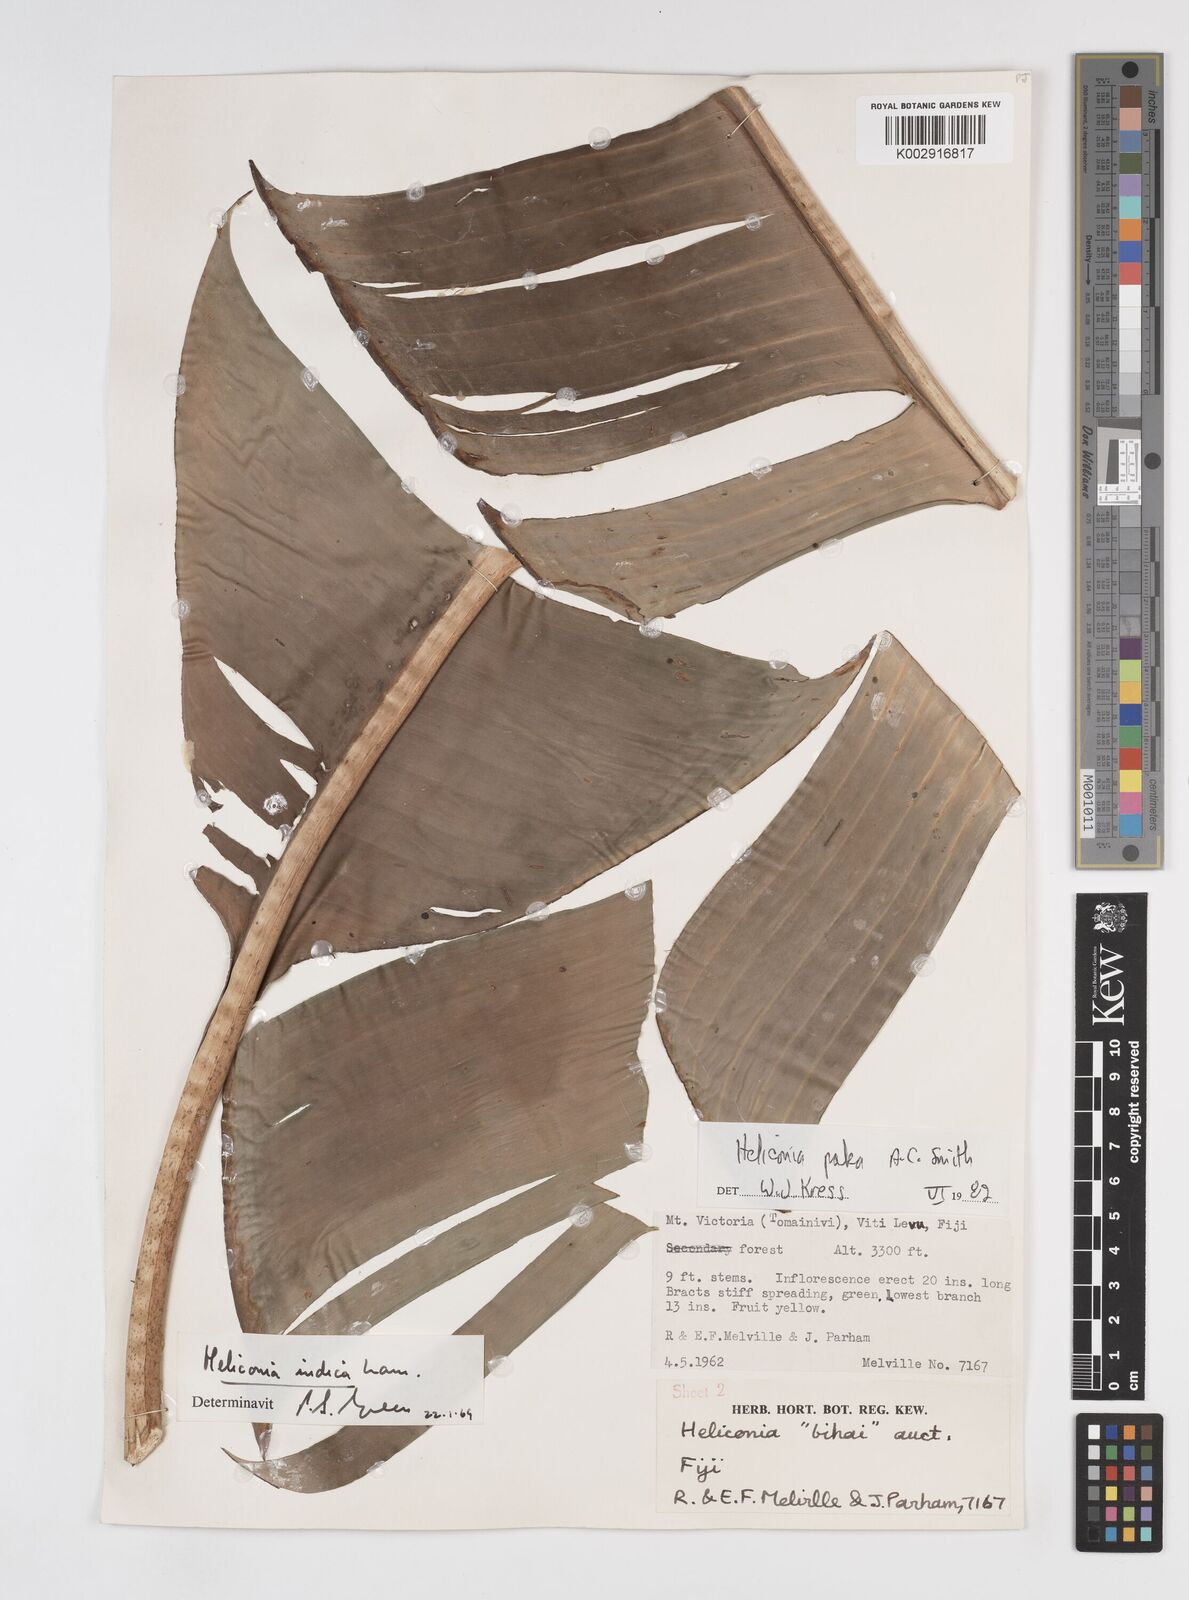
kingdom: Plantae
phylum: Tracheophyta
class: Liliopsida
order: Zingiberales
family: Heliconiaceae
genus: Heliconia
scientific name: Heliconia paka
